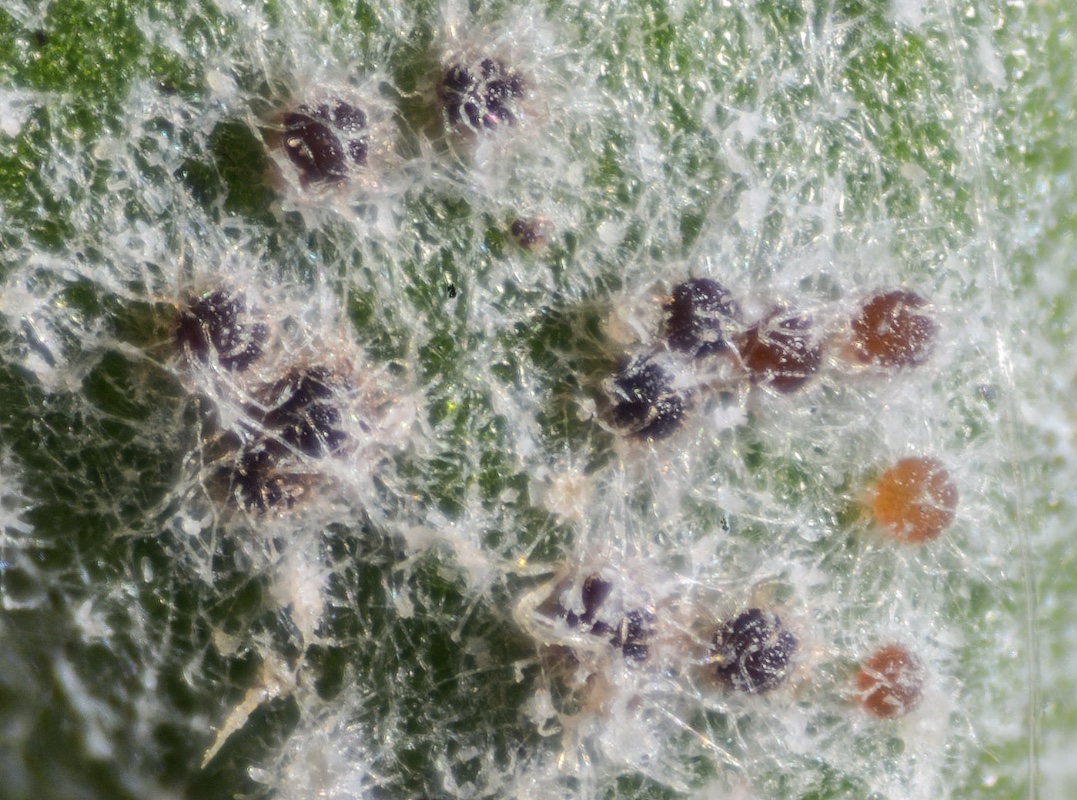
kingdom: Fungi
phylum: Ascomycota
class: Leotiomycetes
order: Helotiales
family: Erysiphaceae
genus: Golovinomyces
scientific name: Golovinomyces inulae
